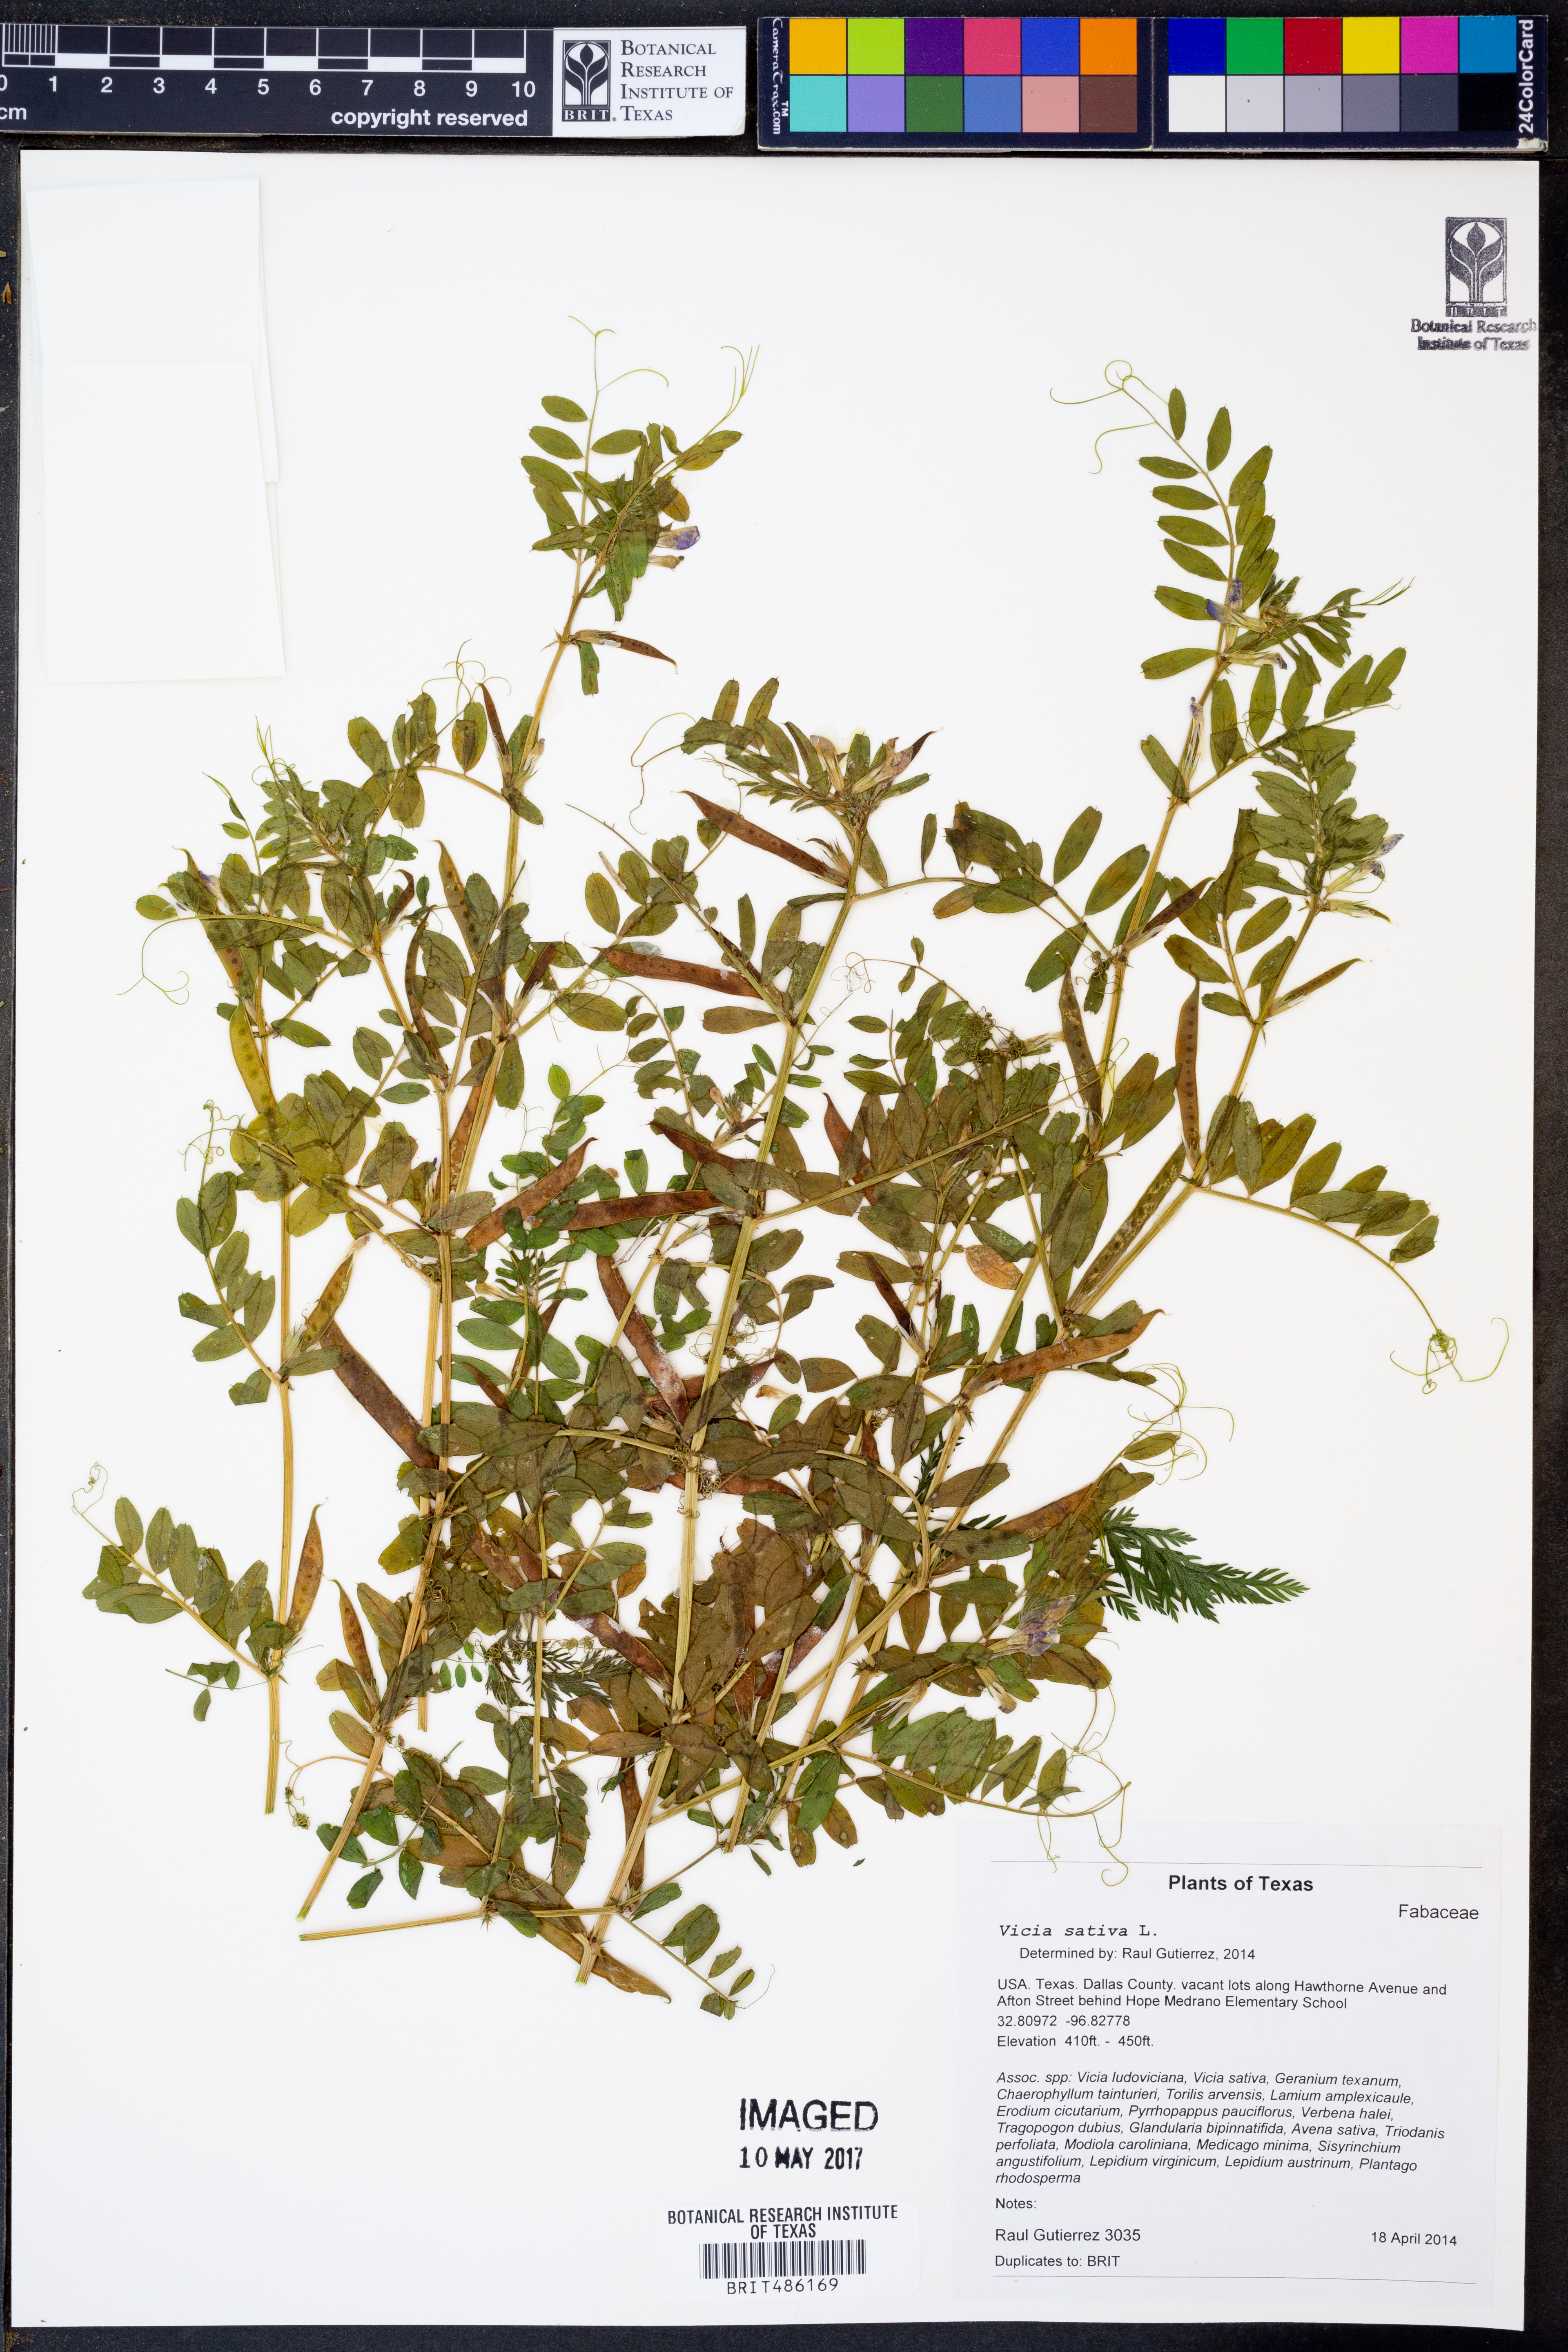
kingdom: Plantae
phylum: Tracheophyta
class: Magnoliopsida
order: Fabales
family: Fabaceae
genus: Vicia
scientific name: Vicia sativa
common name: Garden vetch
